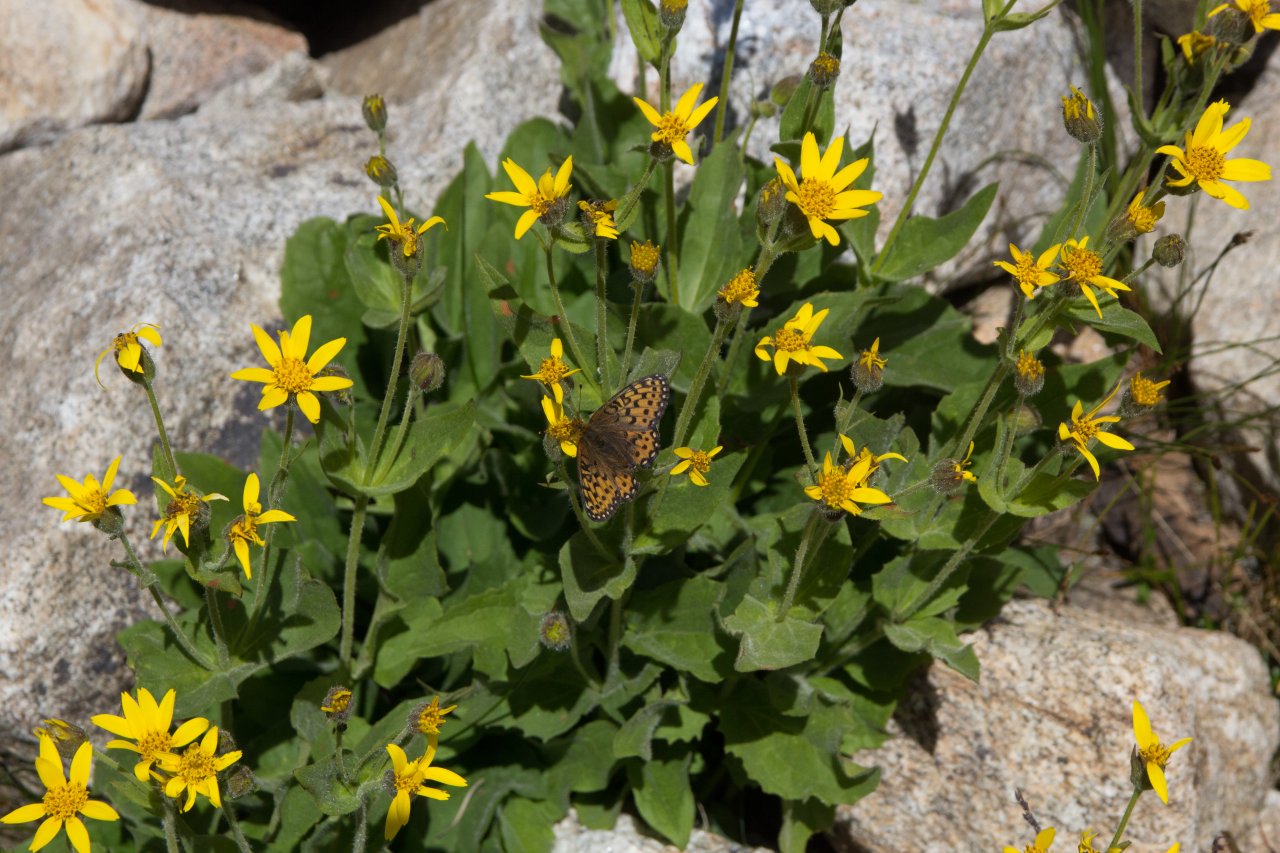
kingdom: Animalia
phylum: Arthropoda
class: Insecta
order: Lepidoptera
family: Nymphalidae
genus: Boloria
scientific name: Boloria chariclea
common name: Arctic Fritillary
